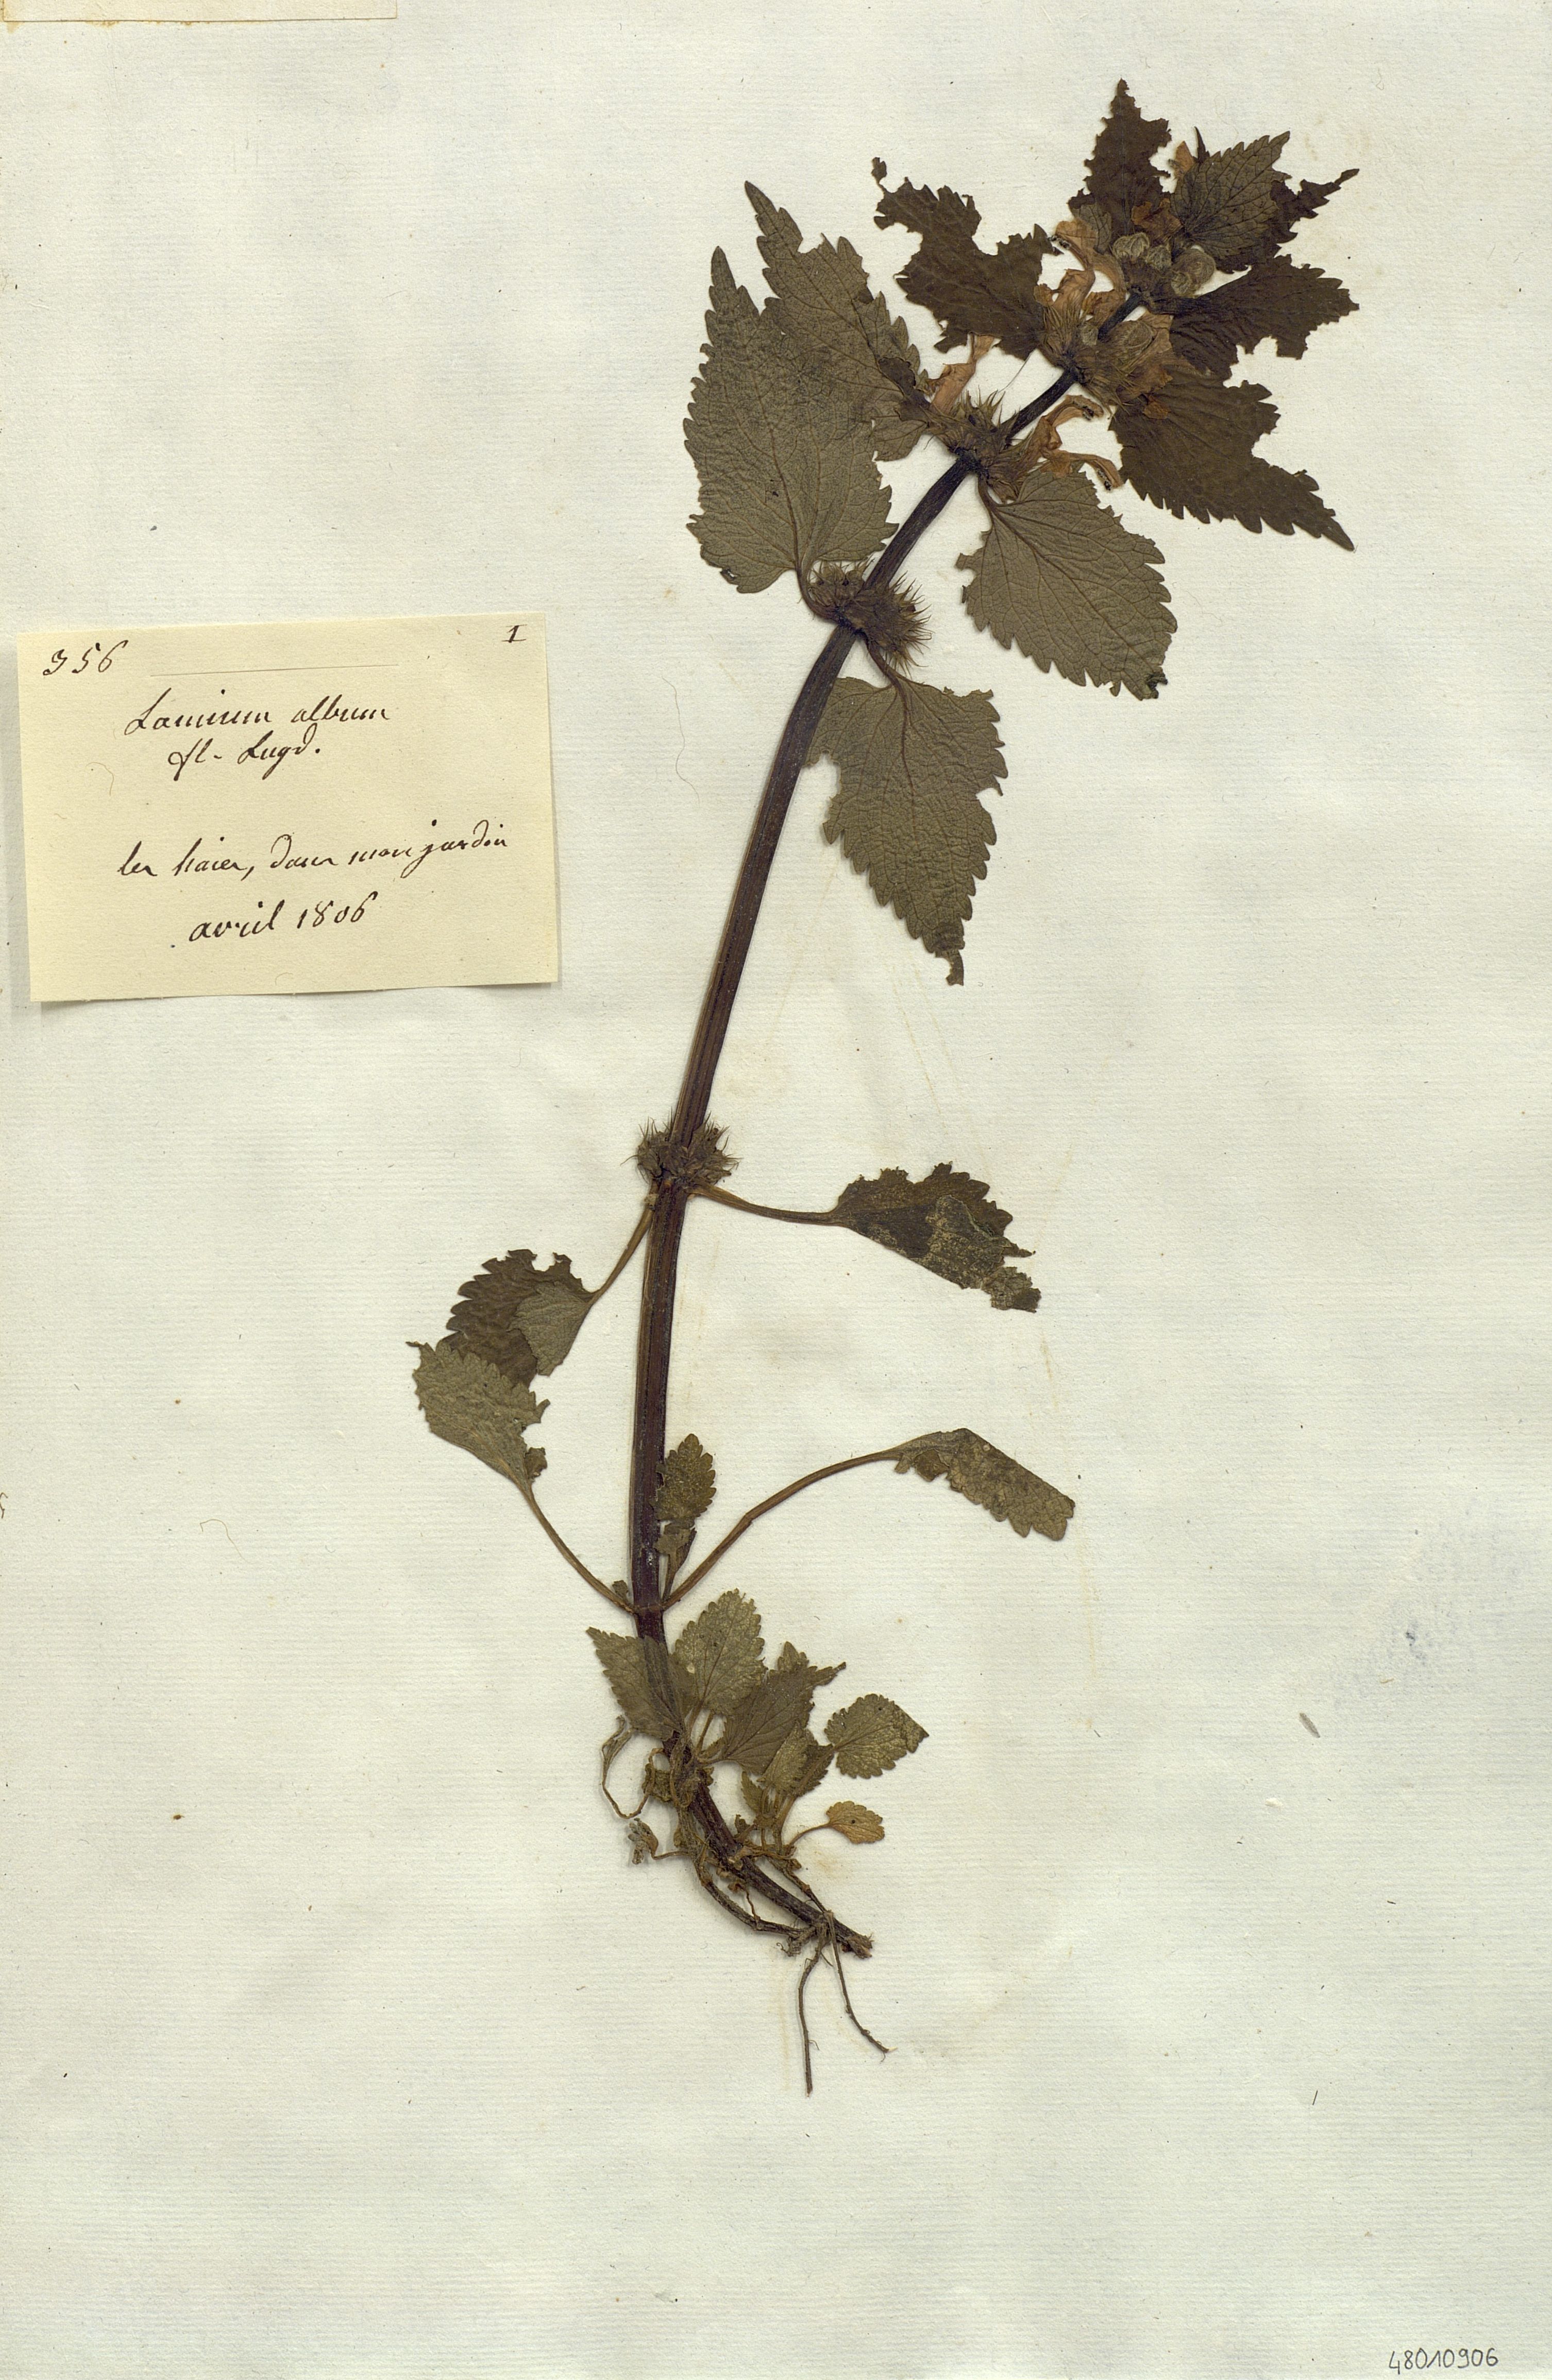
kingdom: Plantae
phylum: Tracheophyta
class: Magnoliopsida
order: Lamiales
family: Lamiaceae
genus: Lamium
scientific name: Lamium album
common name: White dead-nettle
